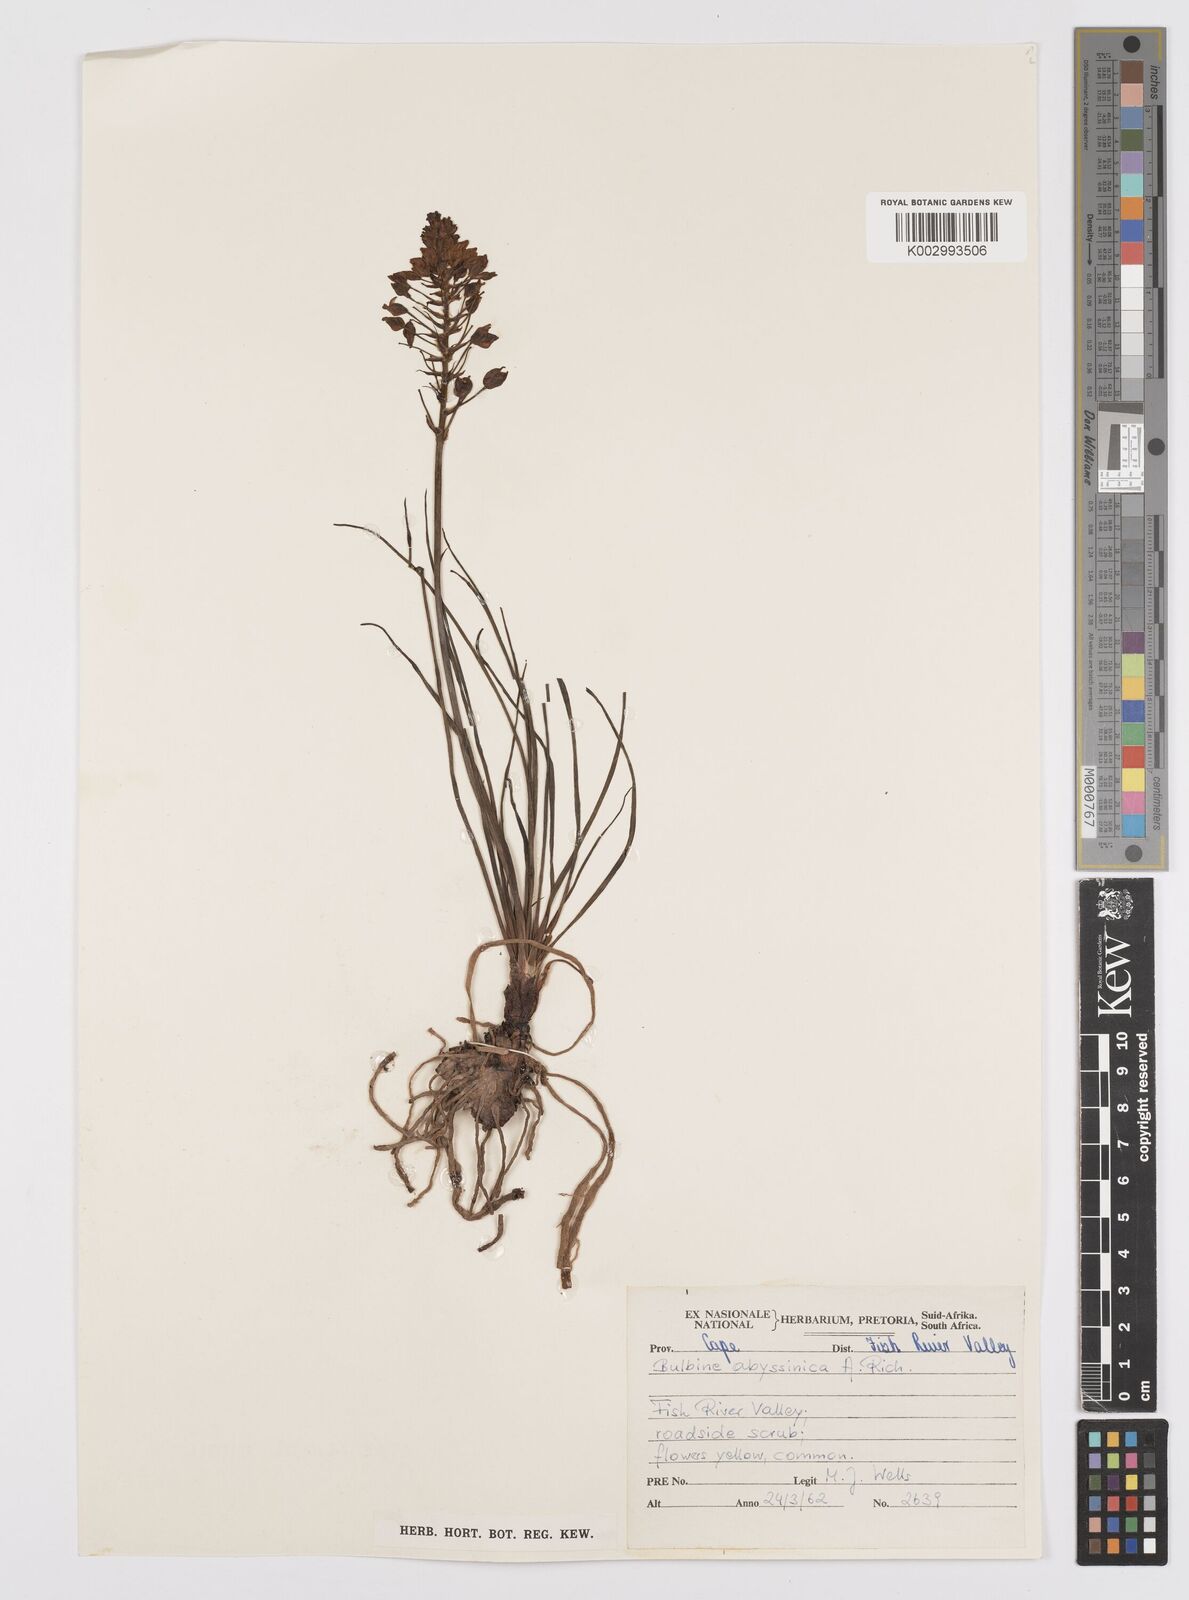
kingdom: Plantae
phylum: Tracheophyta
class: Liliopsida
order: Asparagales
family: Asphodelaceae
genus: Bulbine
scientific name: Bulbine abyssinica
